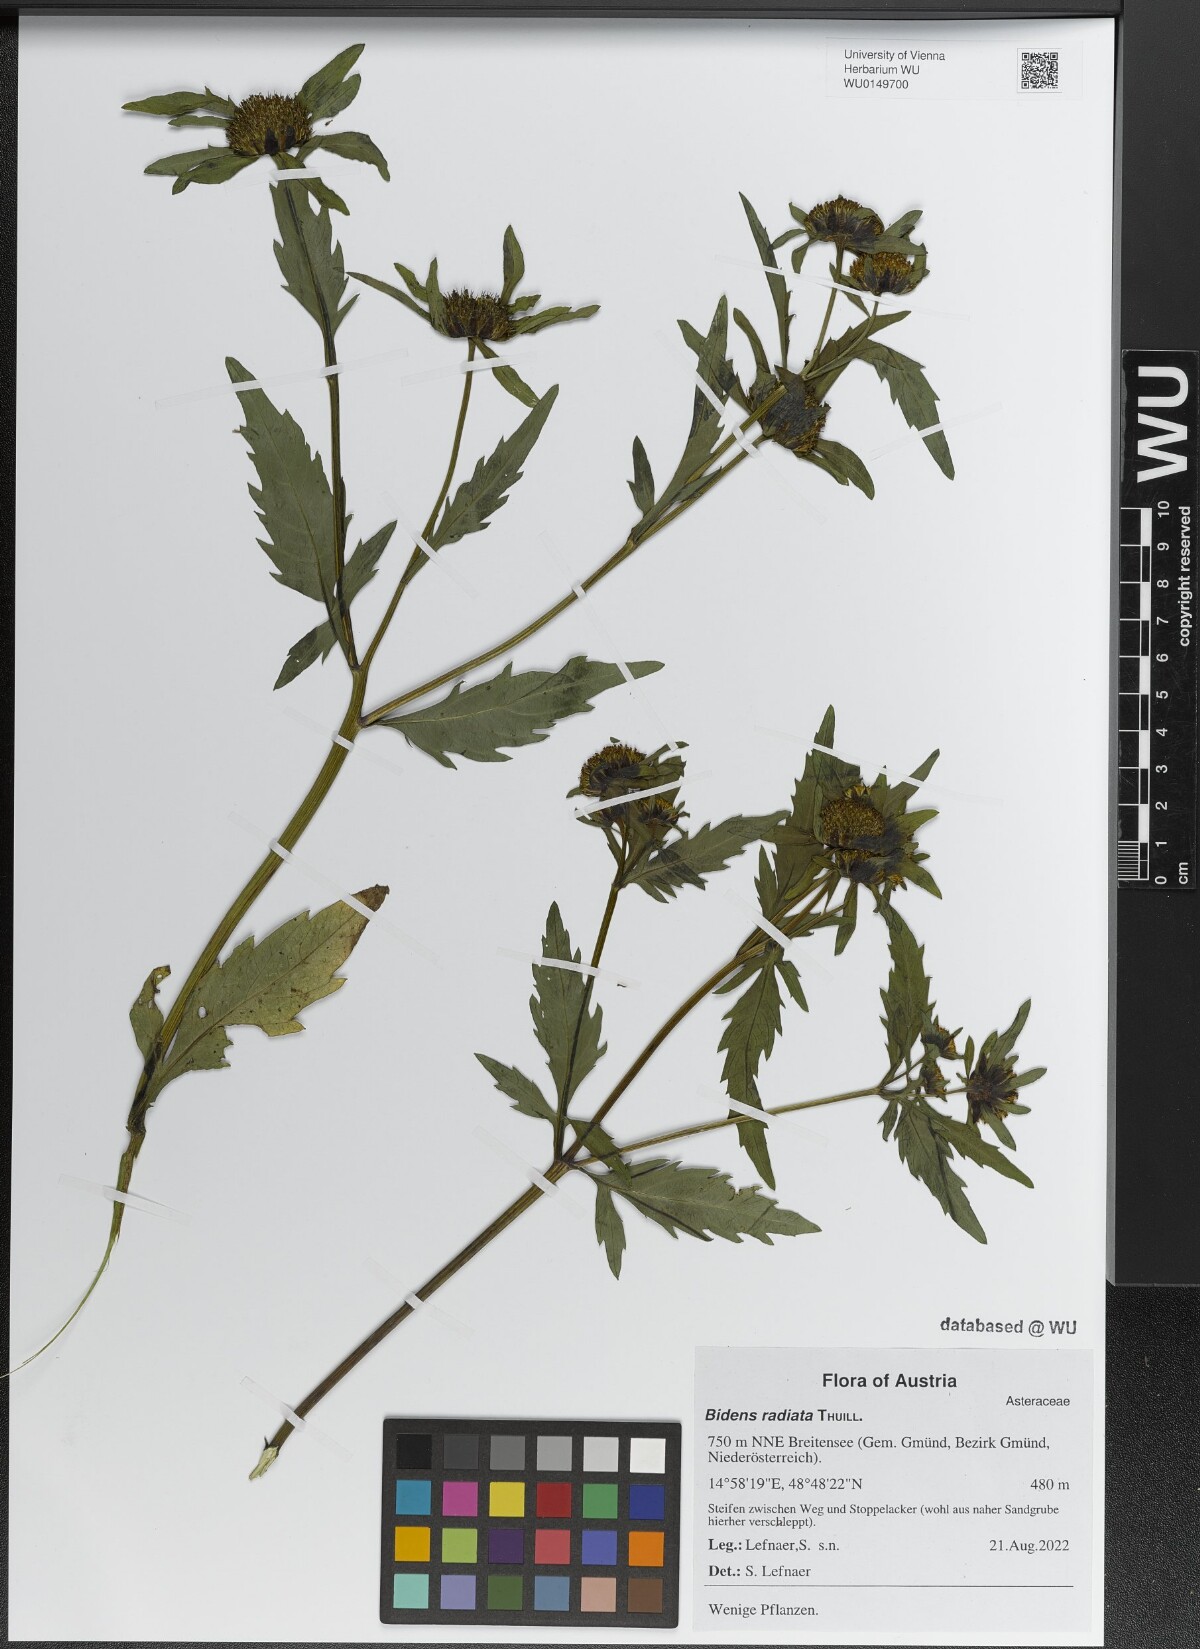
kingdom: Plantae
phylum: Tracheophyta
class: Magnoliopsida
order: Asterales
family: Asteraceae
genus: Bidens
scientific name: Bidens radiata
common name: Radiating bur-marigold
